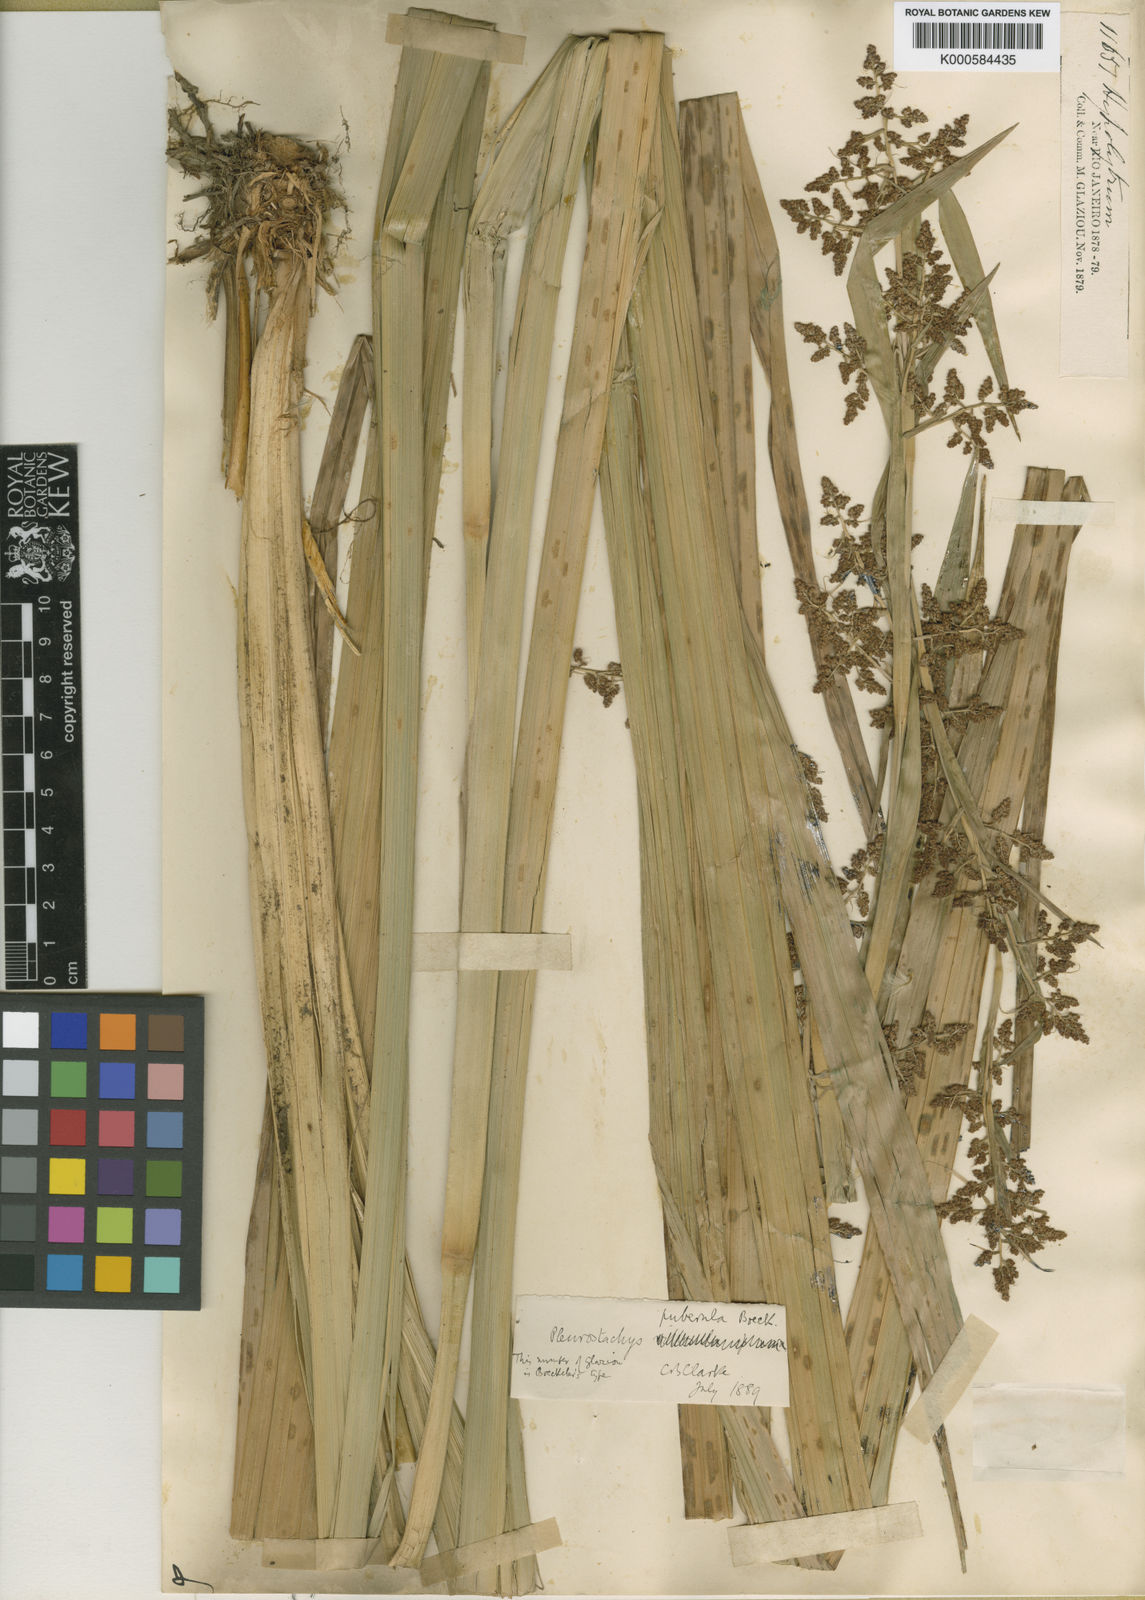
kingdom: Plantae
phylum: Tracheophyta
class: Liliopsida
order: Poales
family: Cyperaceae
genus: Rhynchospora
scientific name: Rhynchospora orbignyana
